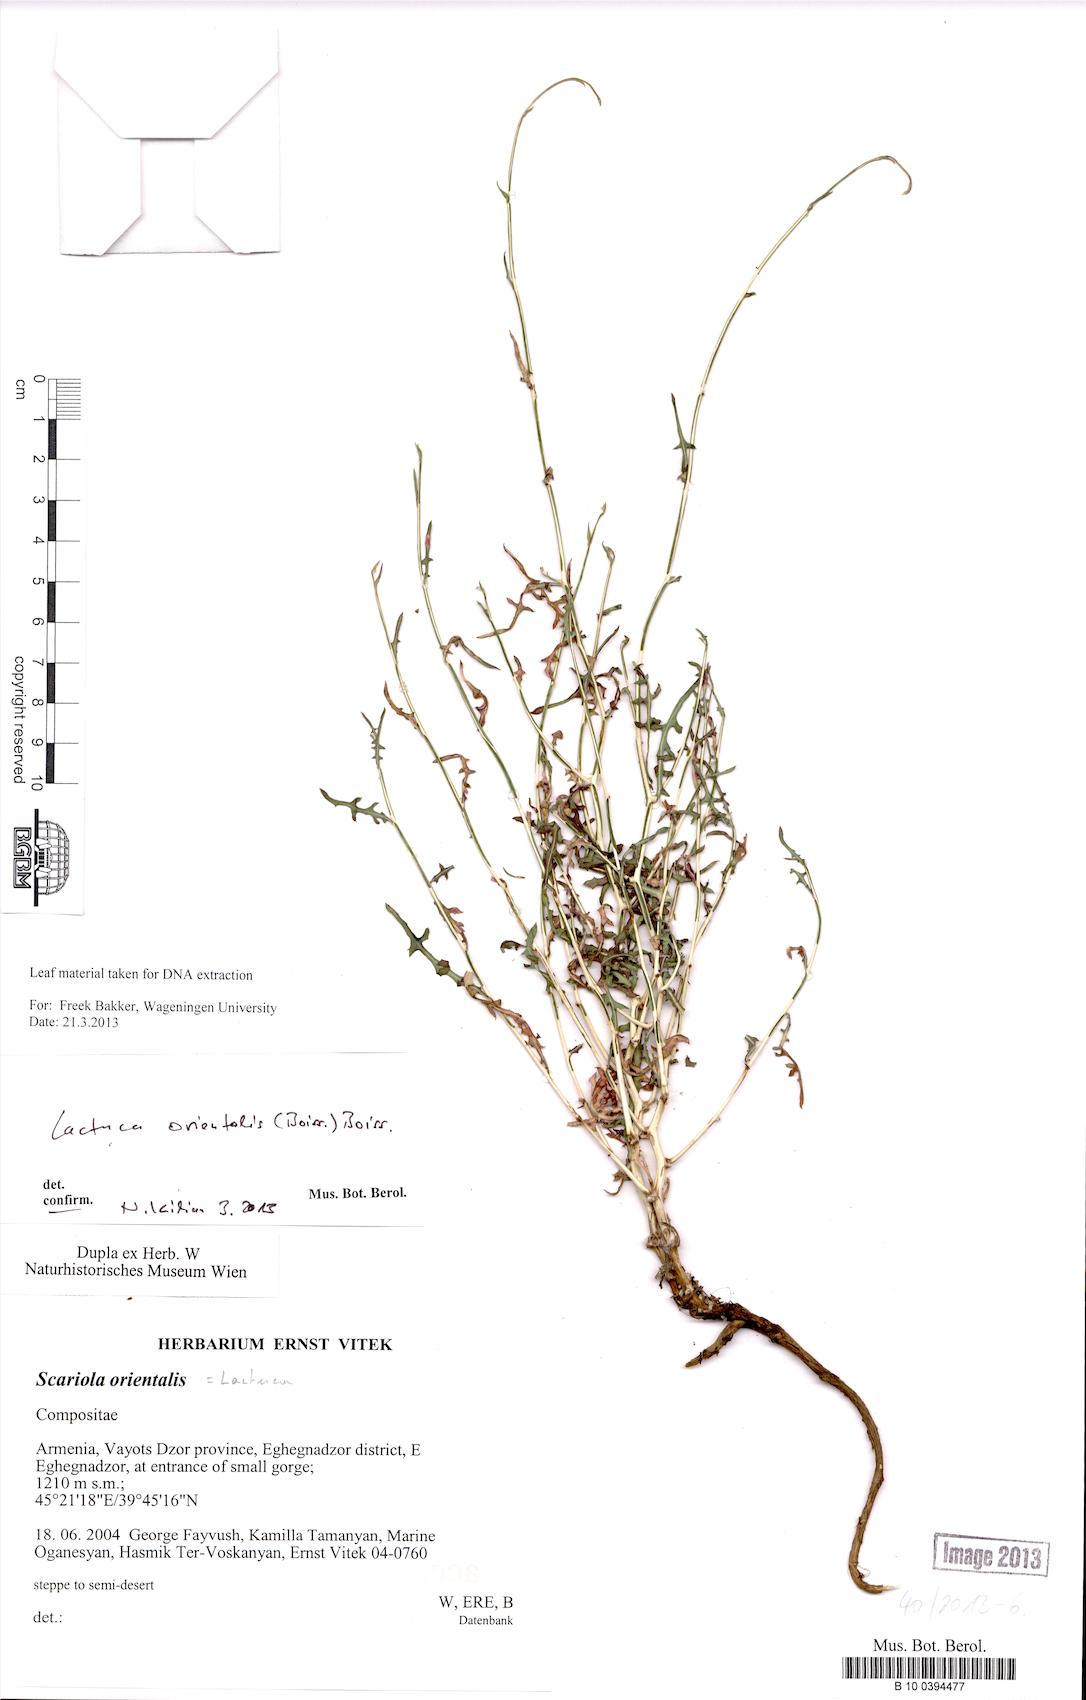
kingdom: Plantae
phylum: Tracheophyta
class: Magnoliopsida
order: Asterales
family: Asteraceae
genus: Lactuca
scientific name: Lactuca orientalis
